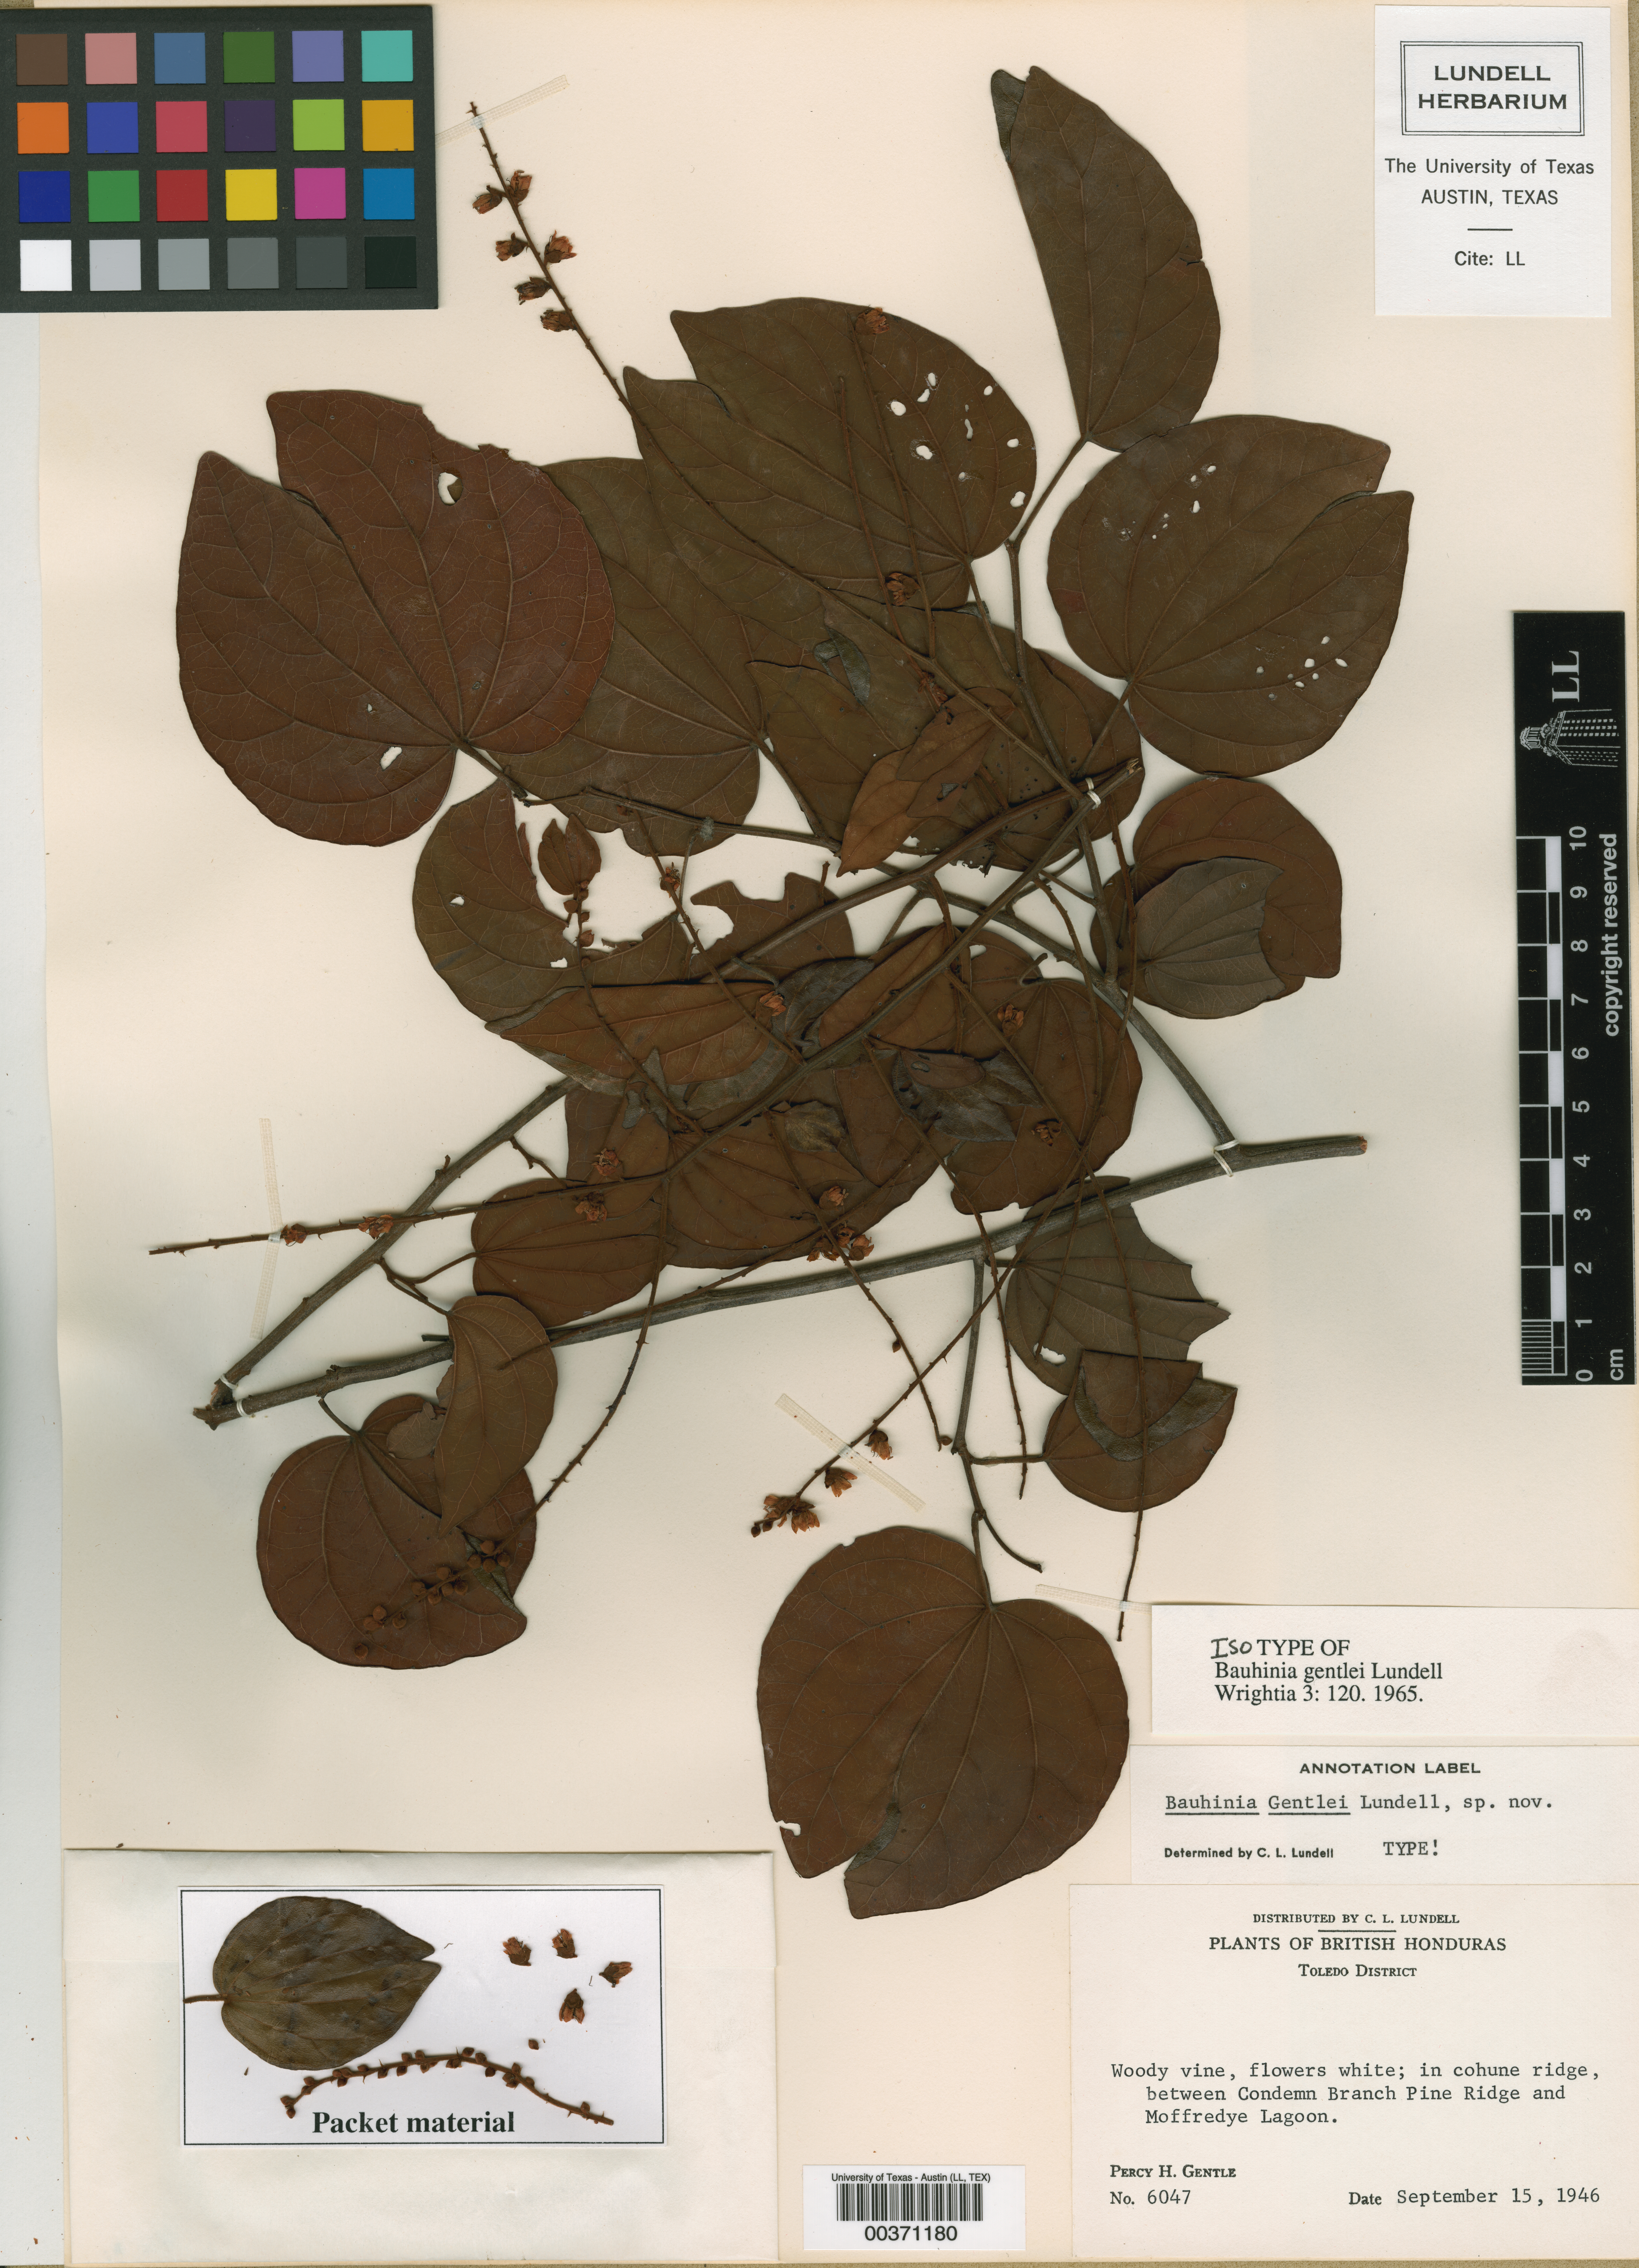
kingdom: Plantae
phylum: Tracheophyta
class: Magnoliopsida
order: Fabales
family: Fabaceae
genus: Schnella
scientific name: Schnella microstachya
